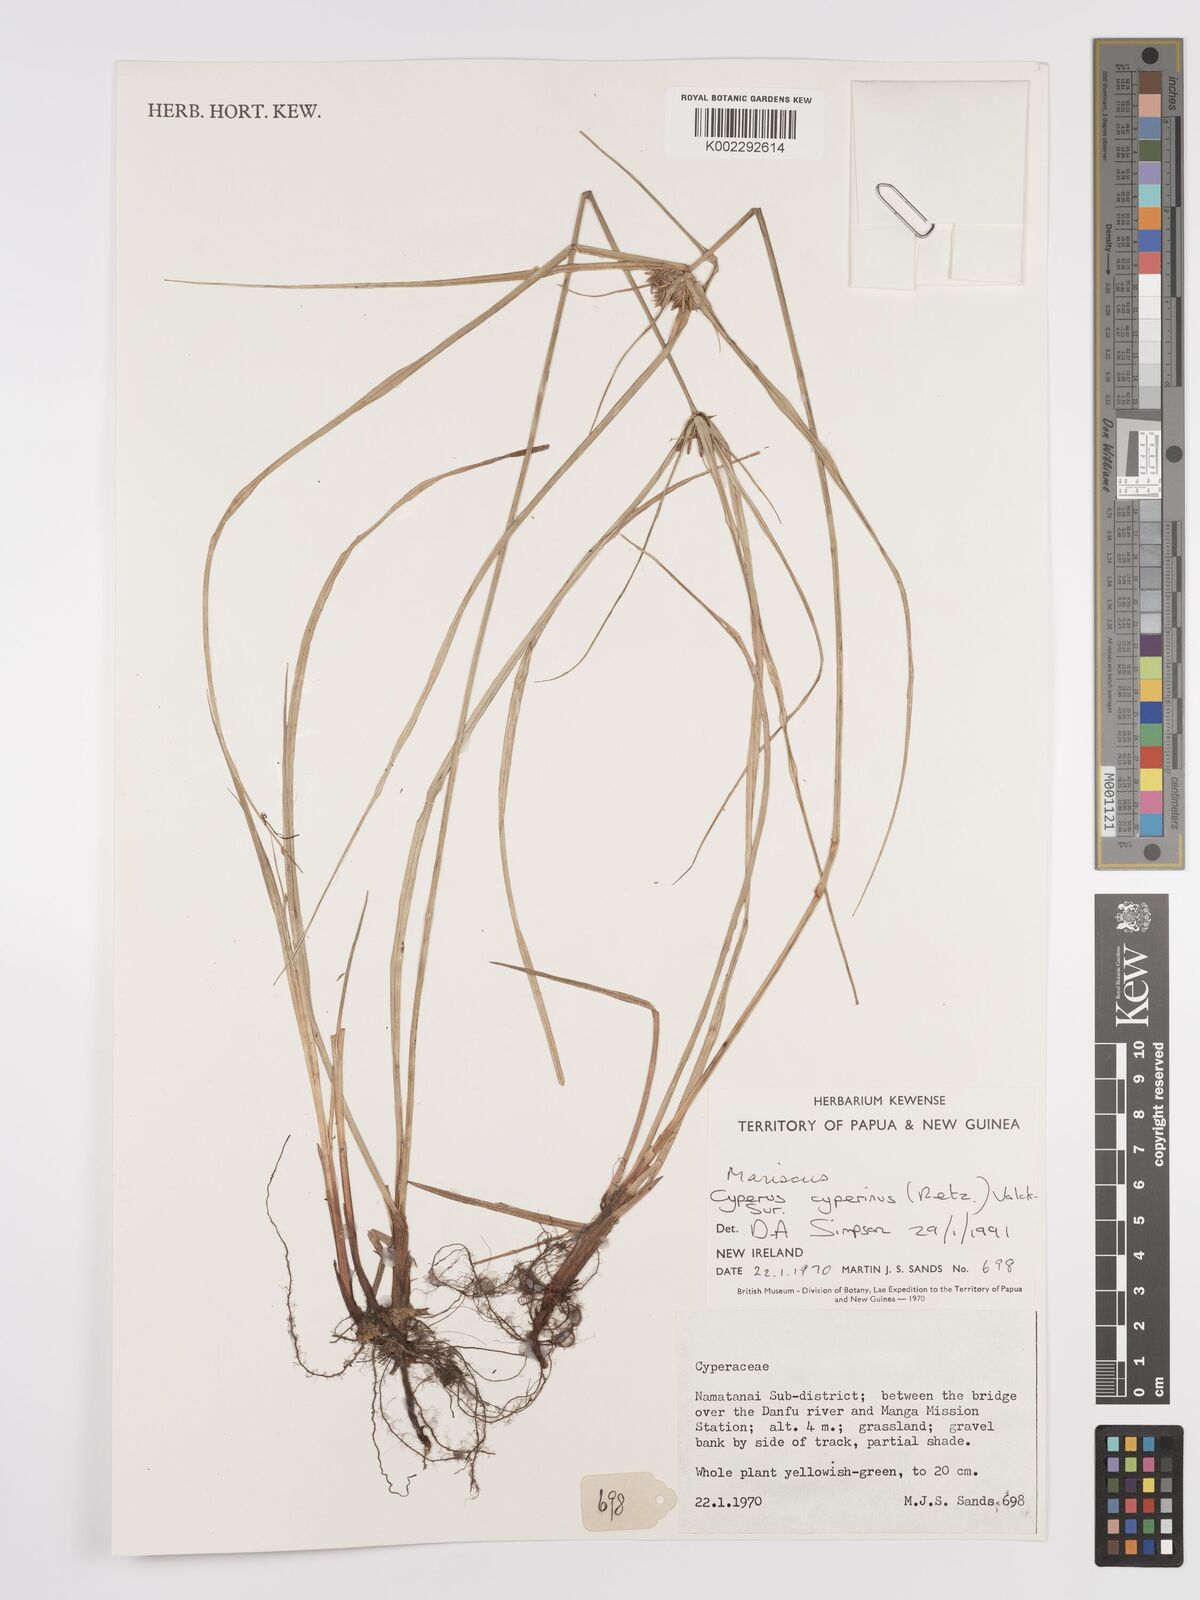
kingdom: Plantae
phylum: Tracheophyta
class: Liliopsida
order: Poales
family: Cyperaceae
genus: Cyperus
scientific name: Cyperus cyperinus
